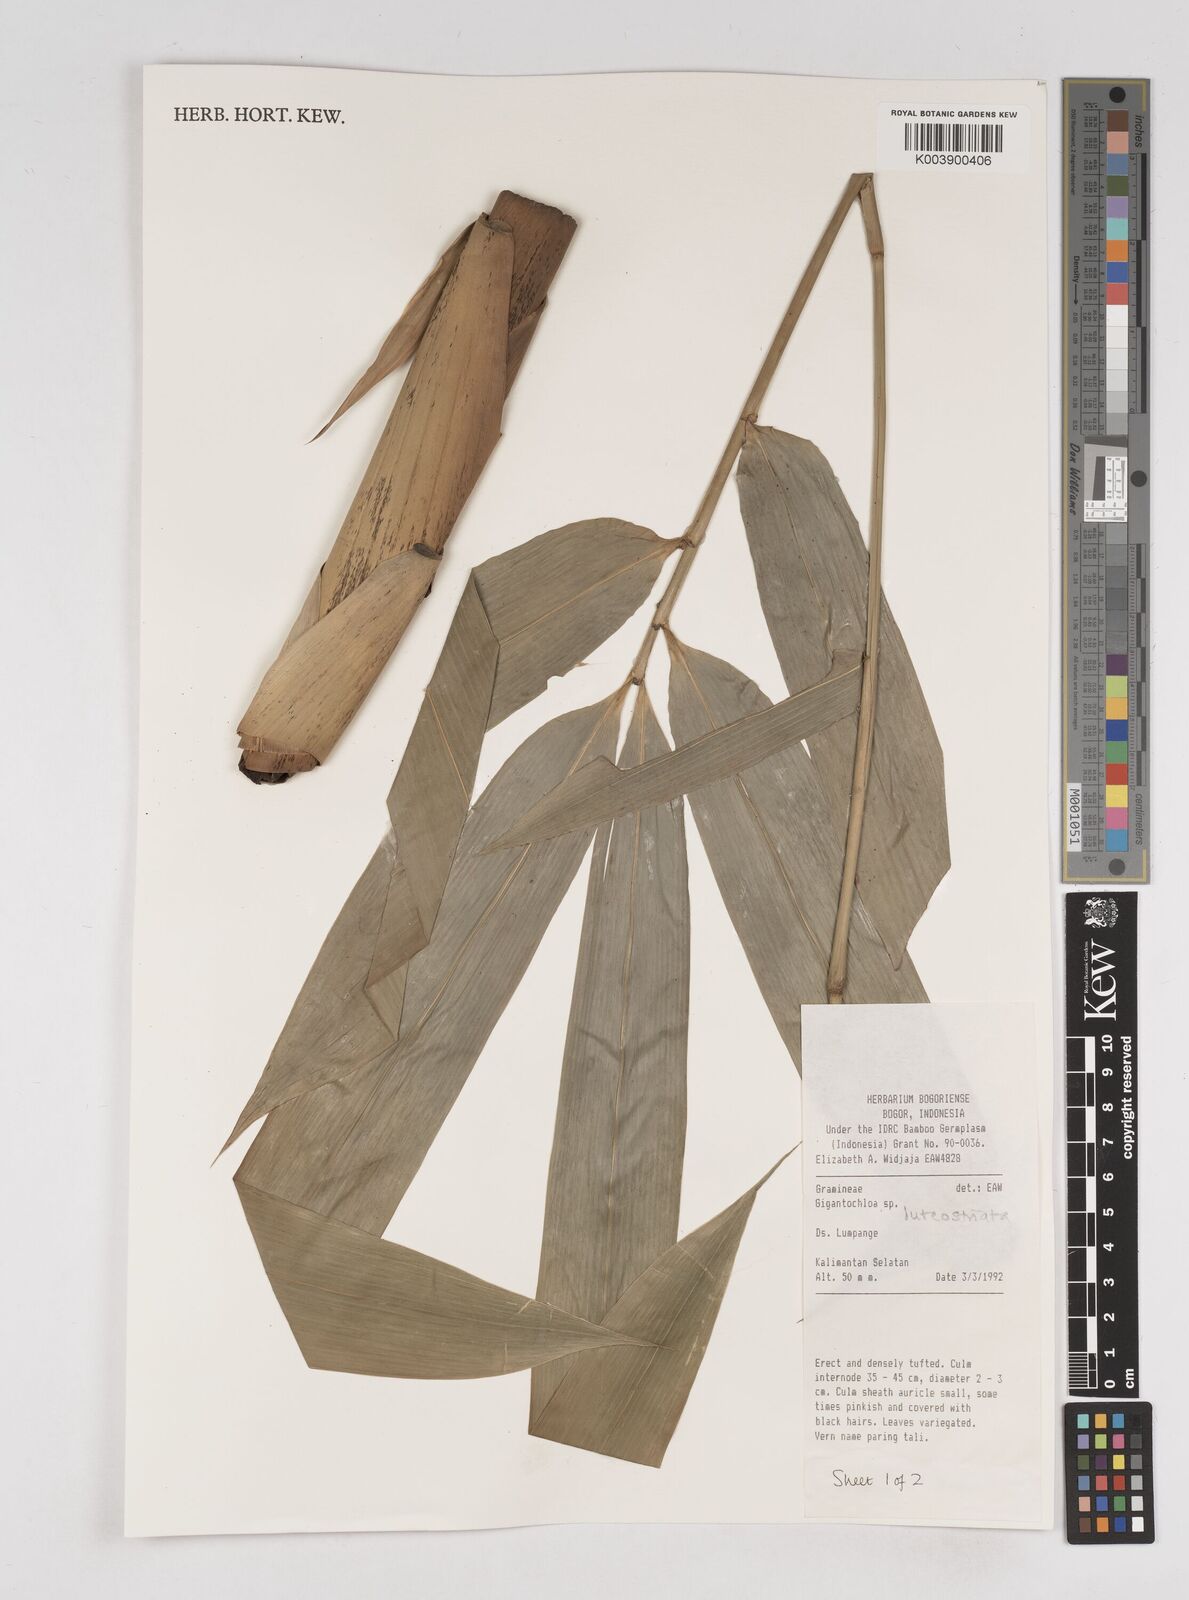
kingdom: Plantae
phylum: Tracheophyta
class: Liliopsida
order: Poales
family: Poaceae
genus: Gigantochloa
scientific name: Gigantochloa luteostriata
